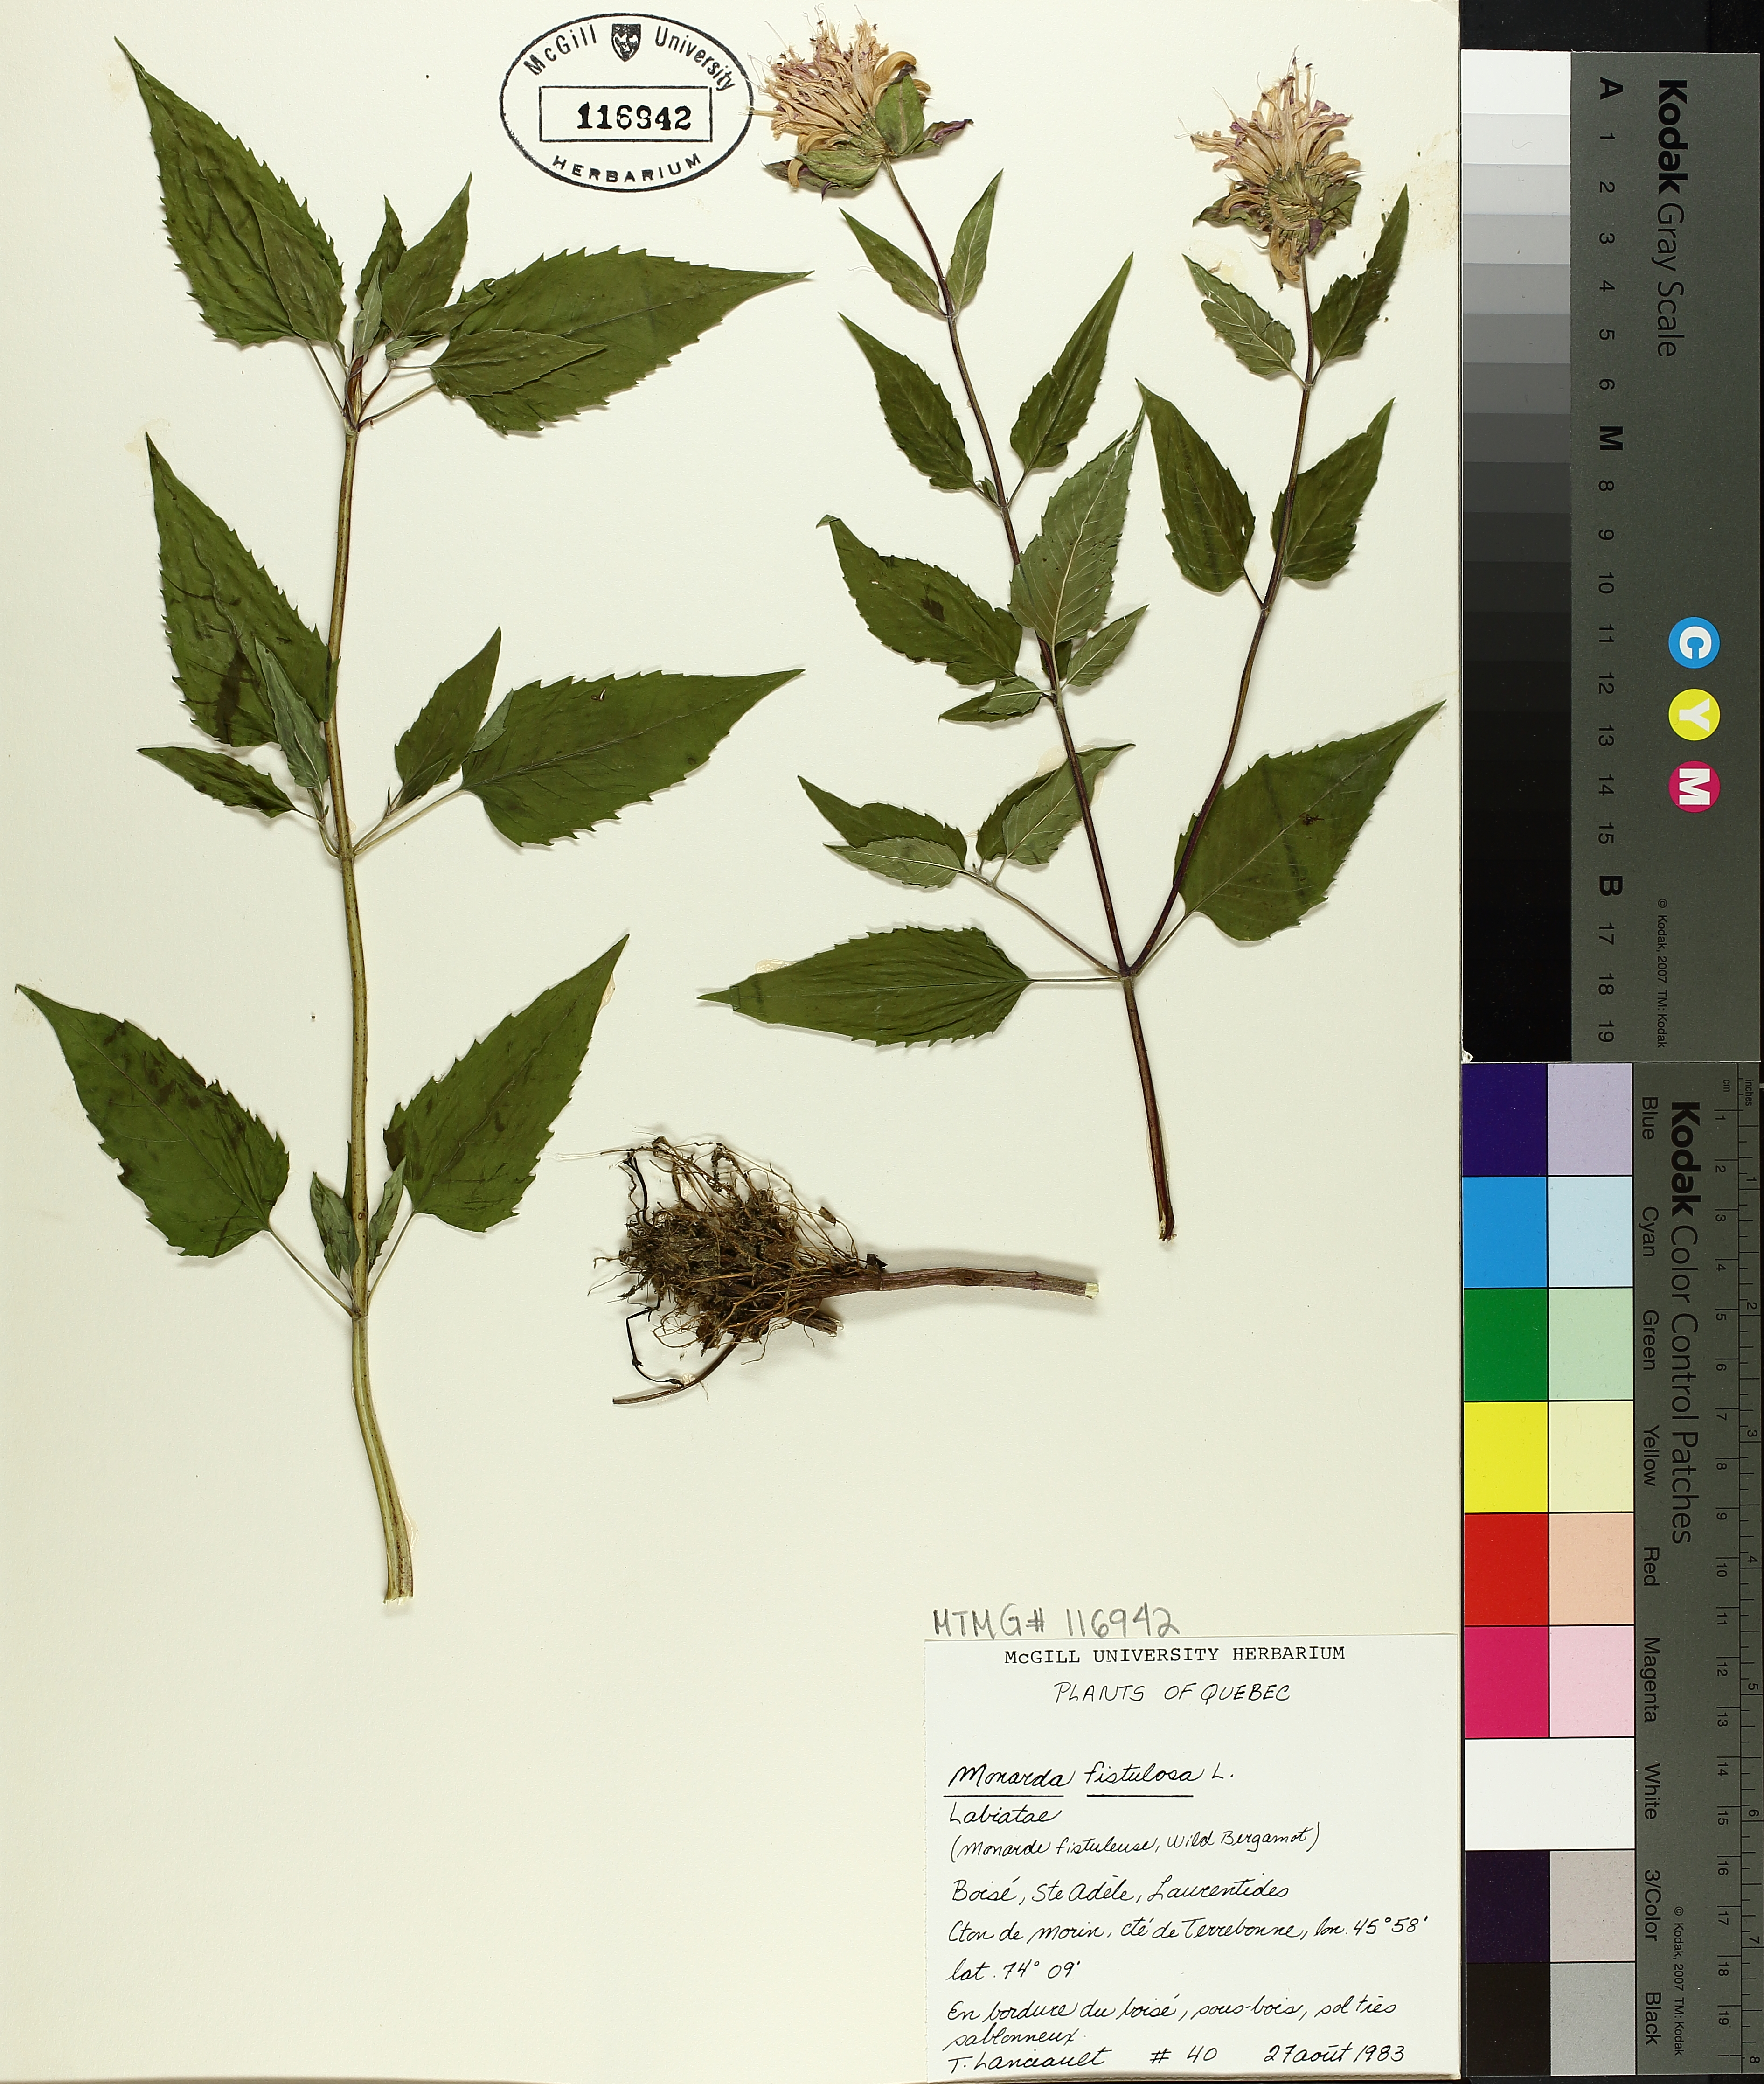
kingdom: Plantae
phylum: Tracheophyta
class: Magnoliopsida
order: Lamiales
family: Lamiaceae
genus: Monarda
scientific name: Monarda fistulosa
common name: Purple beebalm
